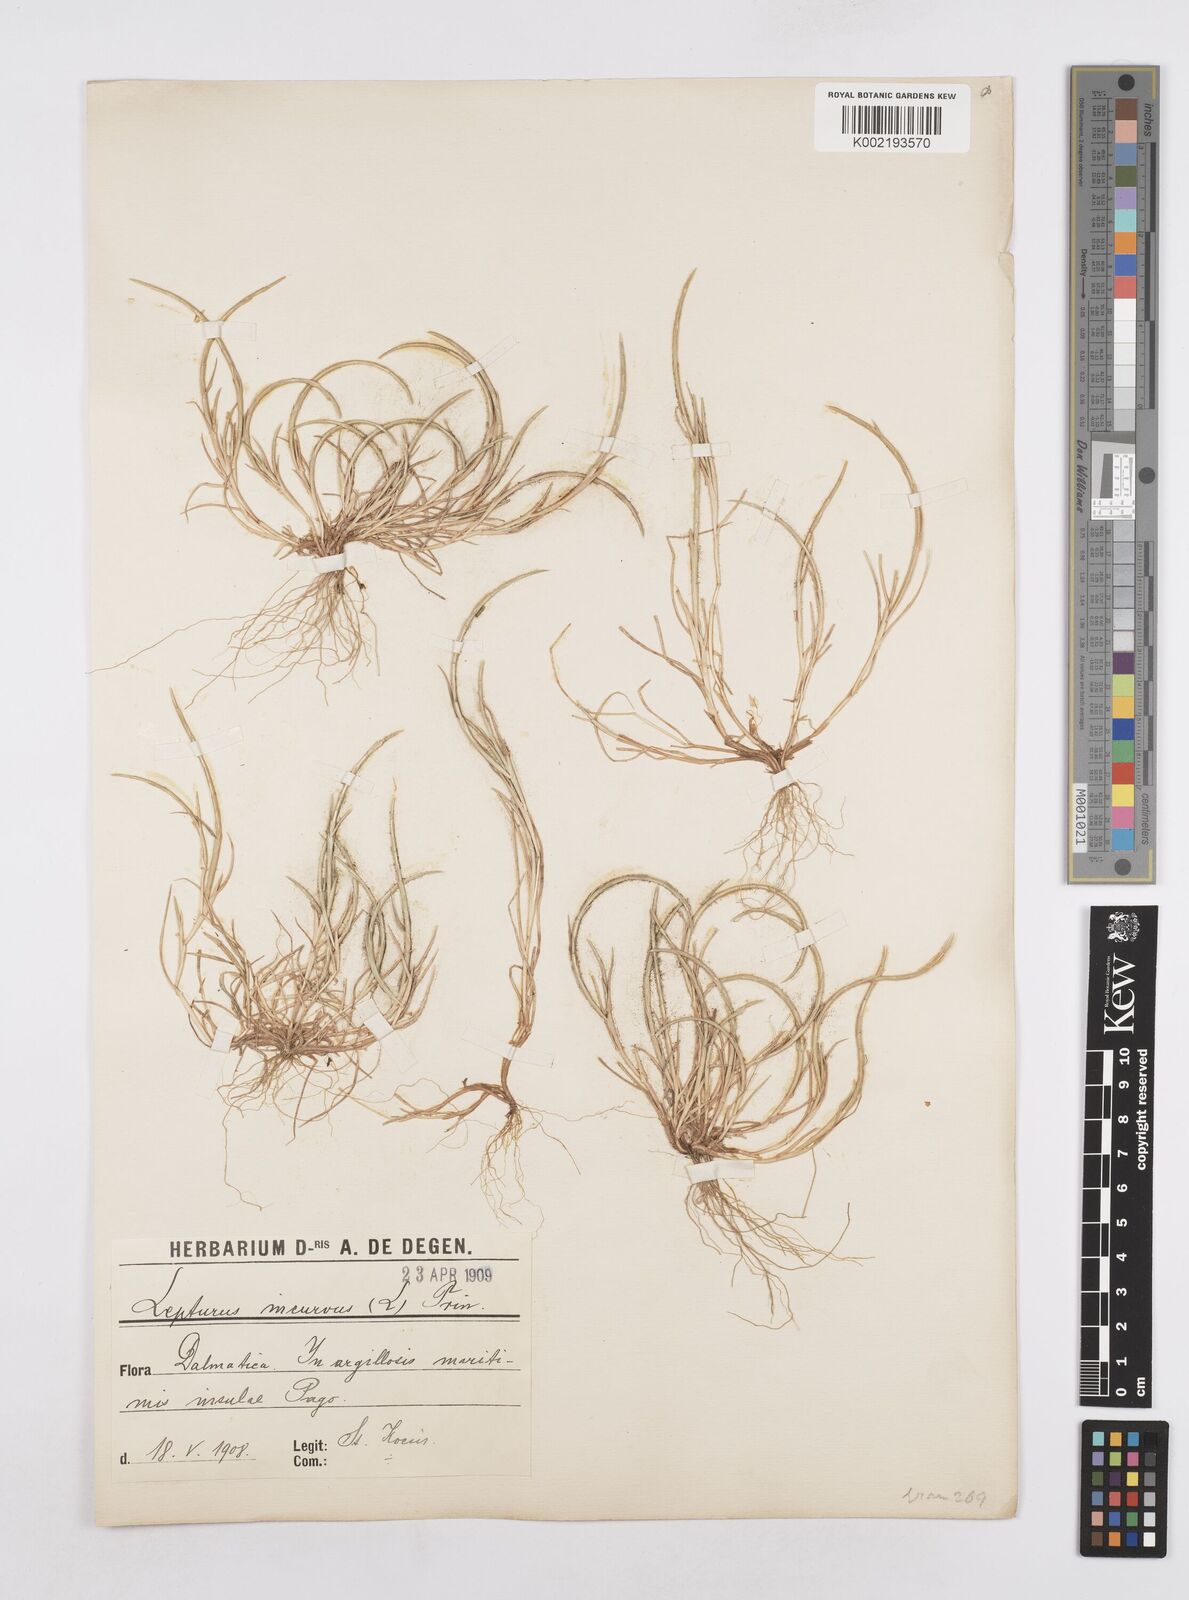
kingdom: Plantae
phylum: Tracheophyta
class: Liliopsida
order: Poales
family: Poaceae
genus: Parapholis
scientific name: Parapholis incurva
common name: Curved sicklegrass
